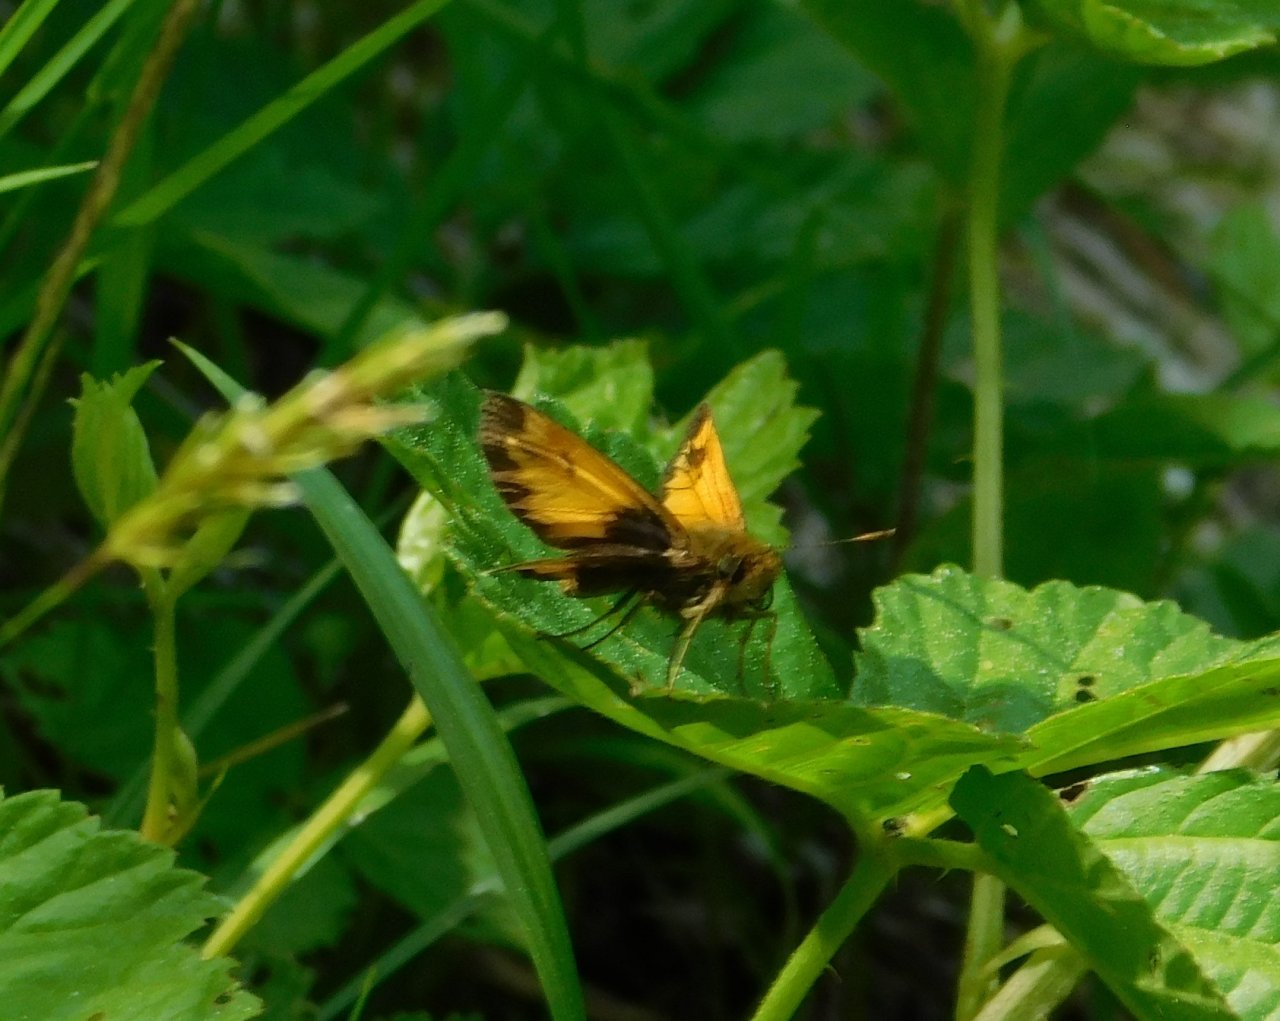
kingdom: Animalia
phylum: Arthropoda
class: Insecta
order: Lepidoptera
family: Hesperiidae
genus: Lon
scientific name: Lon hobomok
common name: Hobomok Skipper
